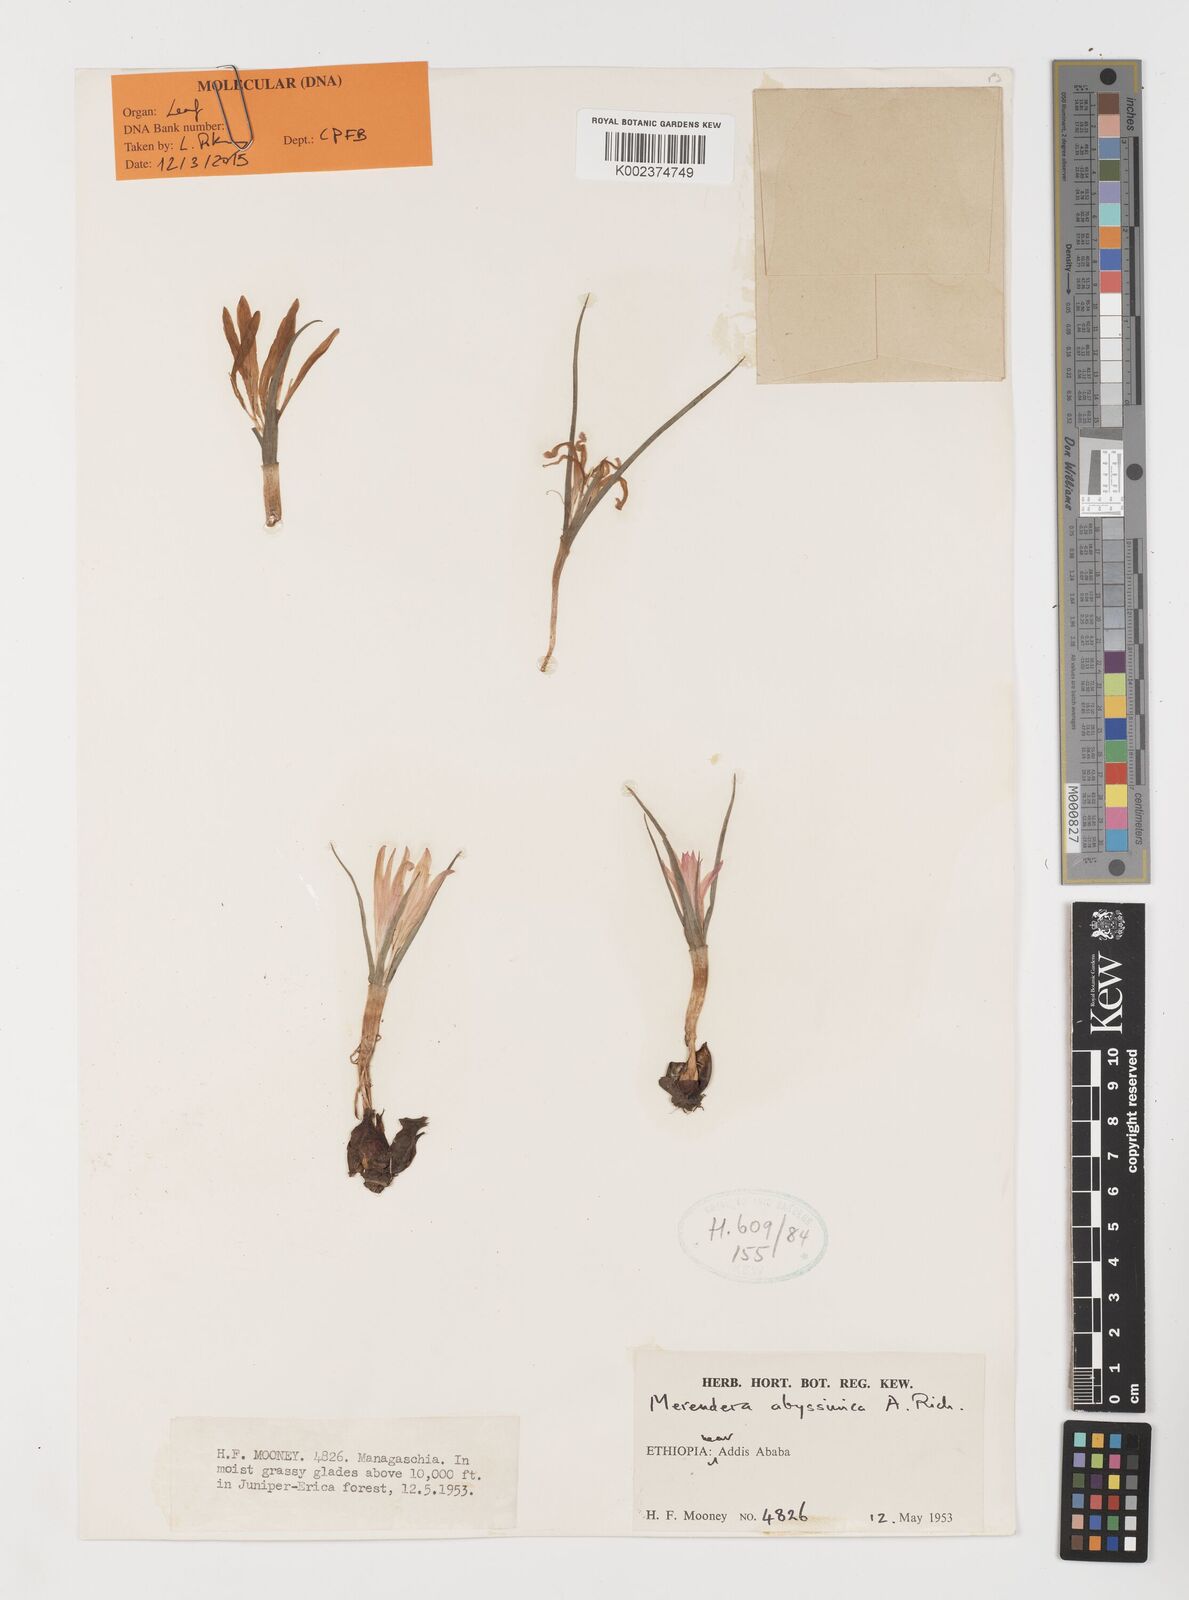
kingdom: Plantae
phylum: Tracheophyta
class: Liliopsida
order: Liliales
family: Colchicaceae
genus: Colchicum
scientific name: Colchicum
